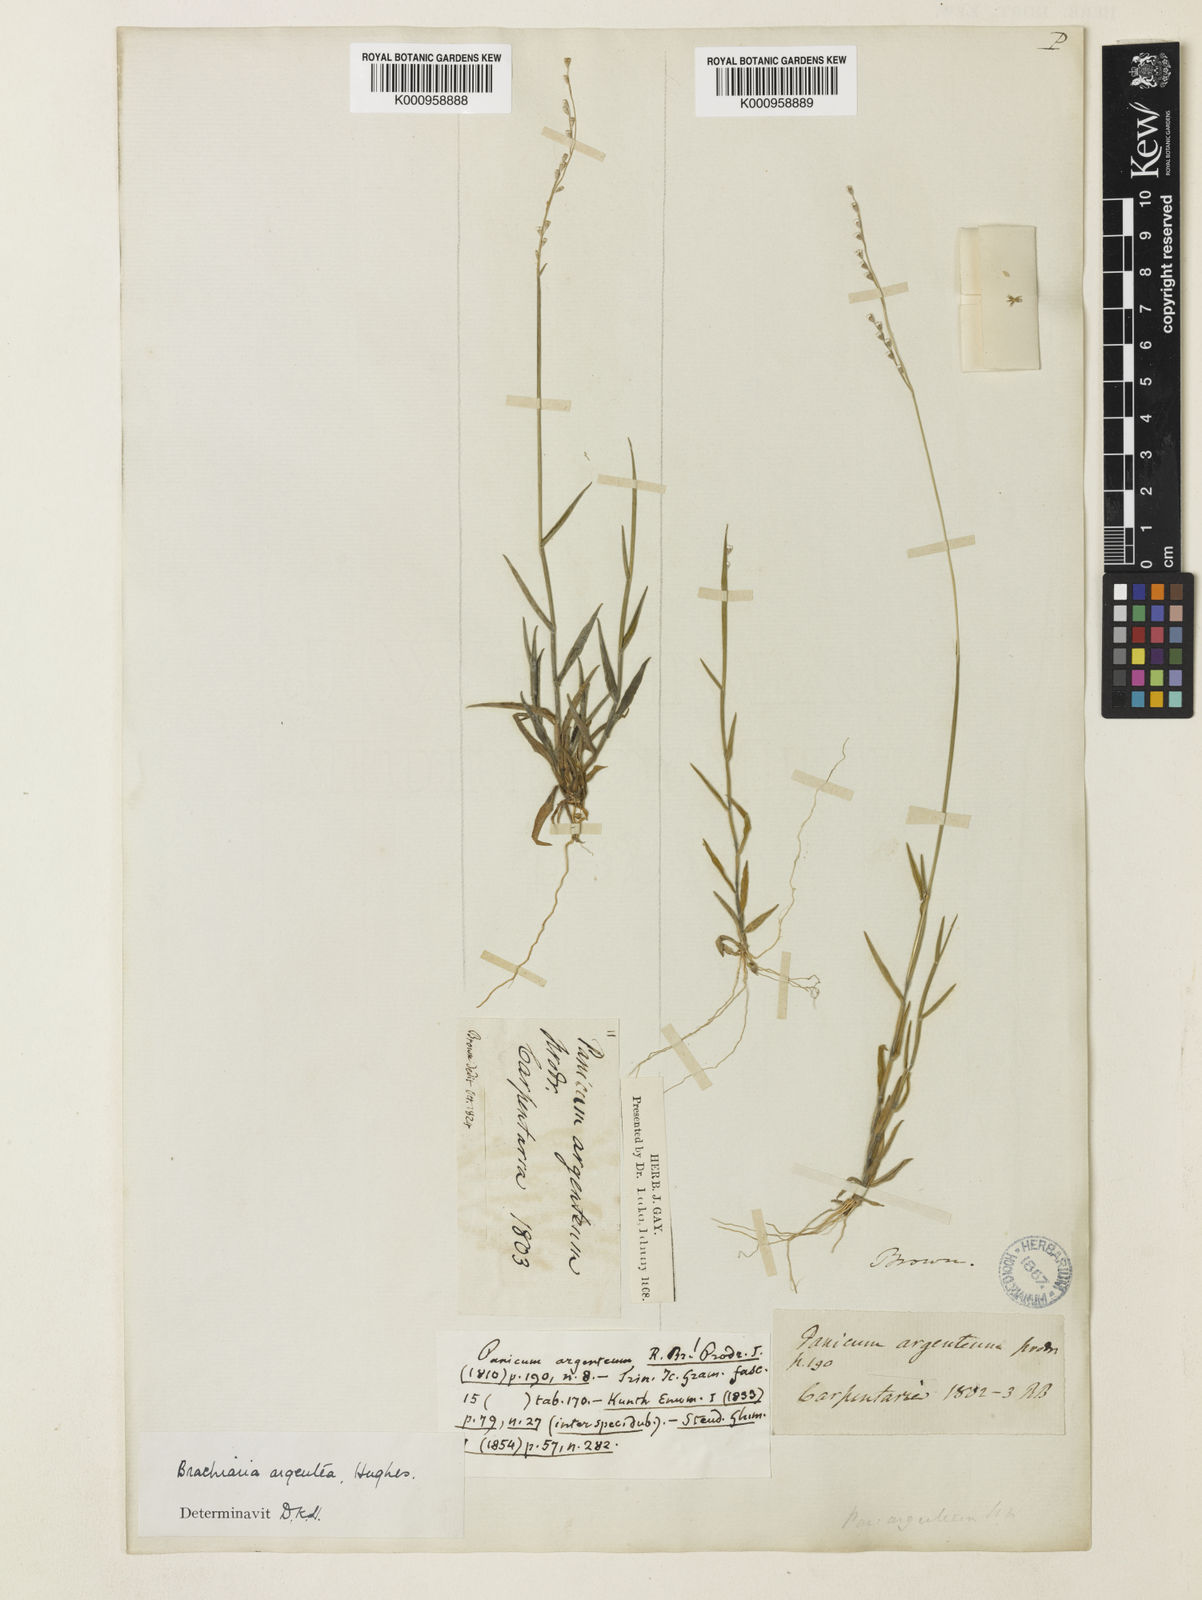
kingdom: Plantae
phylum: Tracheophyta
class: Liliopsida
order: Poales
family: Poaceae
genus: Urochloa
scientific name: Urochloa argentea
